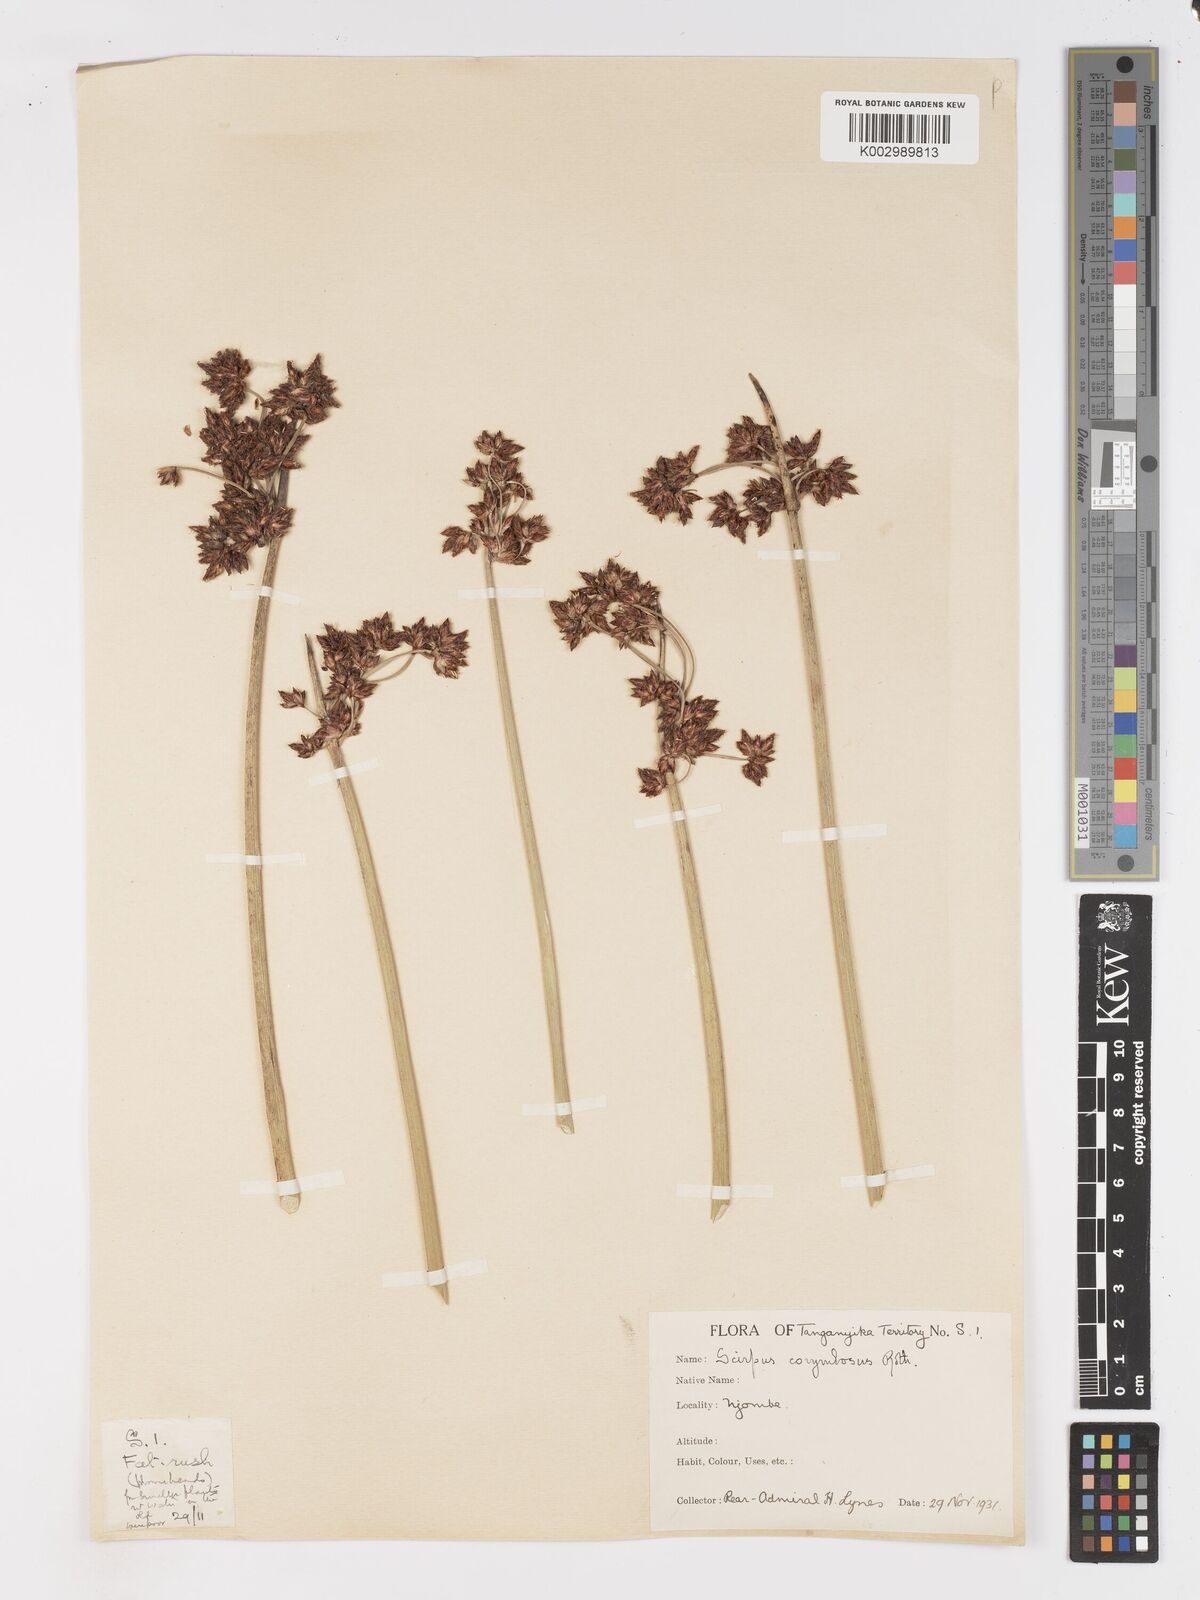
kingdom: Plantae
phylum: Tracheophyta
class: Liliopsida
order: Poales
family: Cyperaceae
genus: Schoenoplectiella
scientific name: Schoenoplectiella brachyceras
